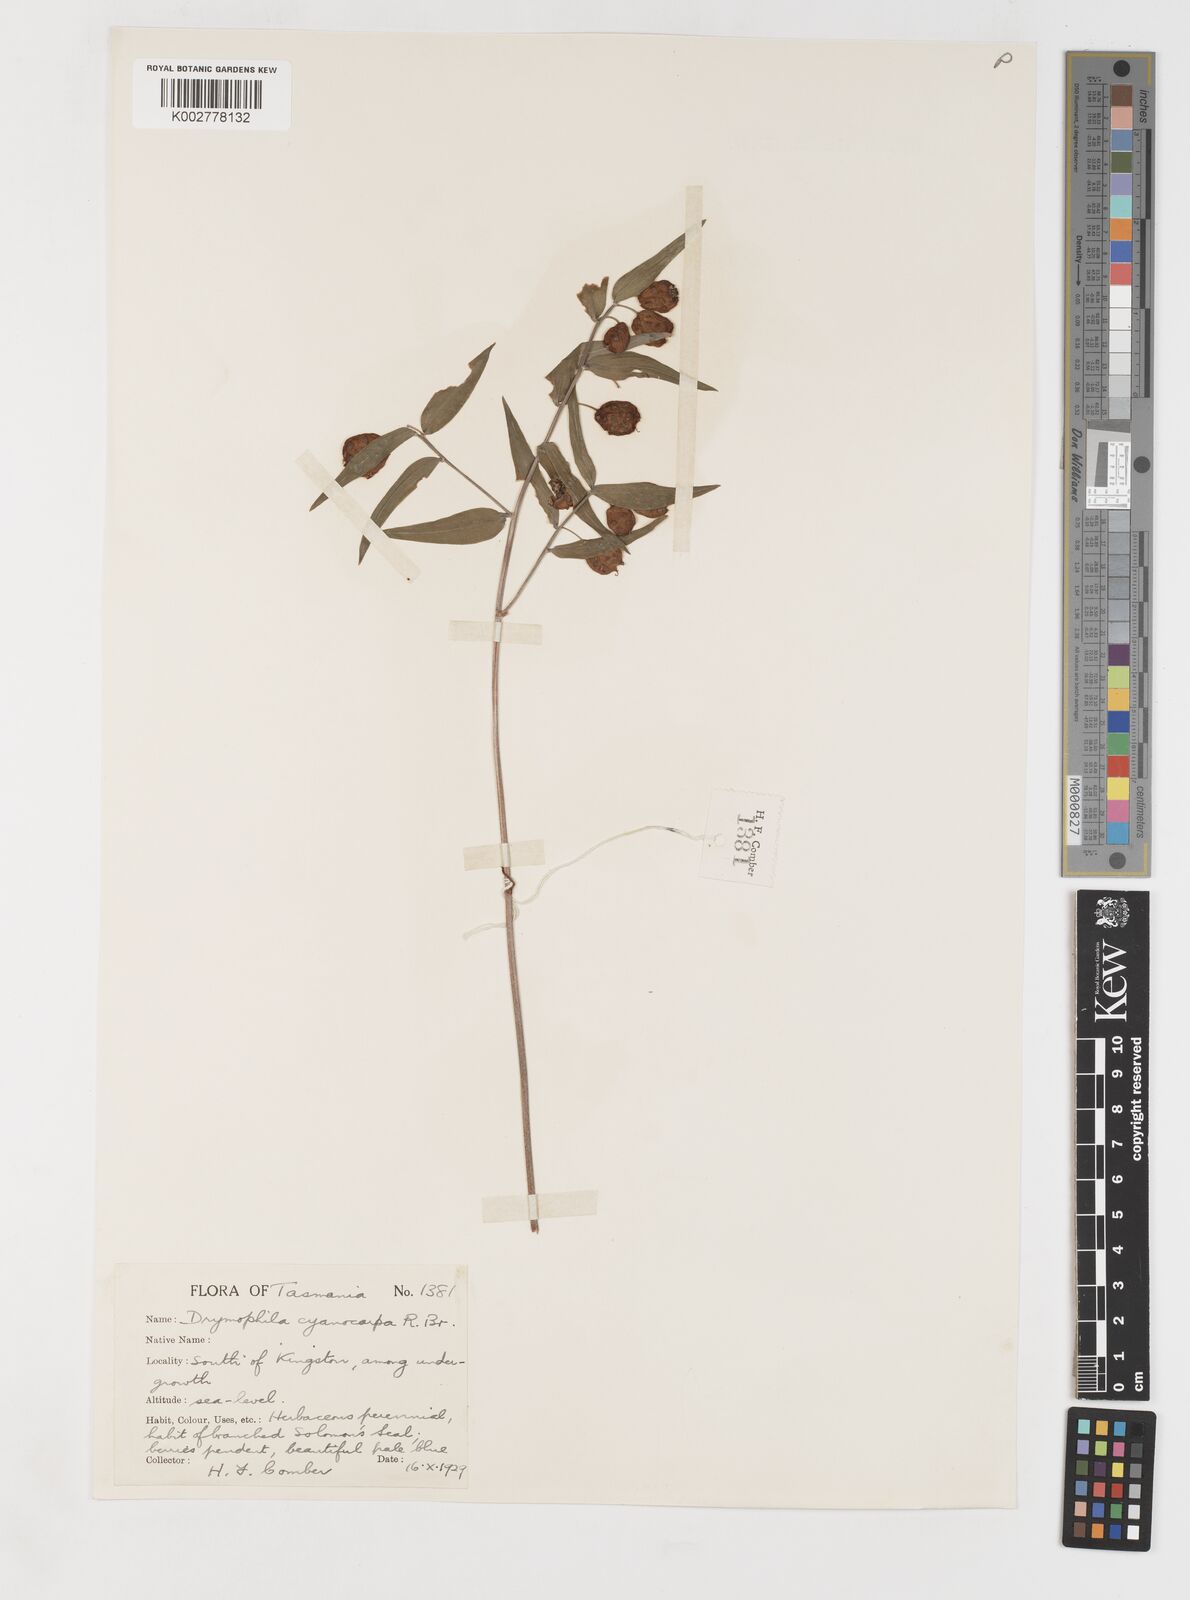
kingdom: Plantae
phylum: Tracheophyta
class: Liliopsida
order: Liliales
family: Alstroemeriaceae
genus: Drymophila
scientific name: Drymophila cyanocarpa
